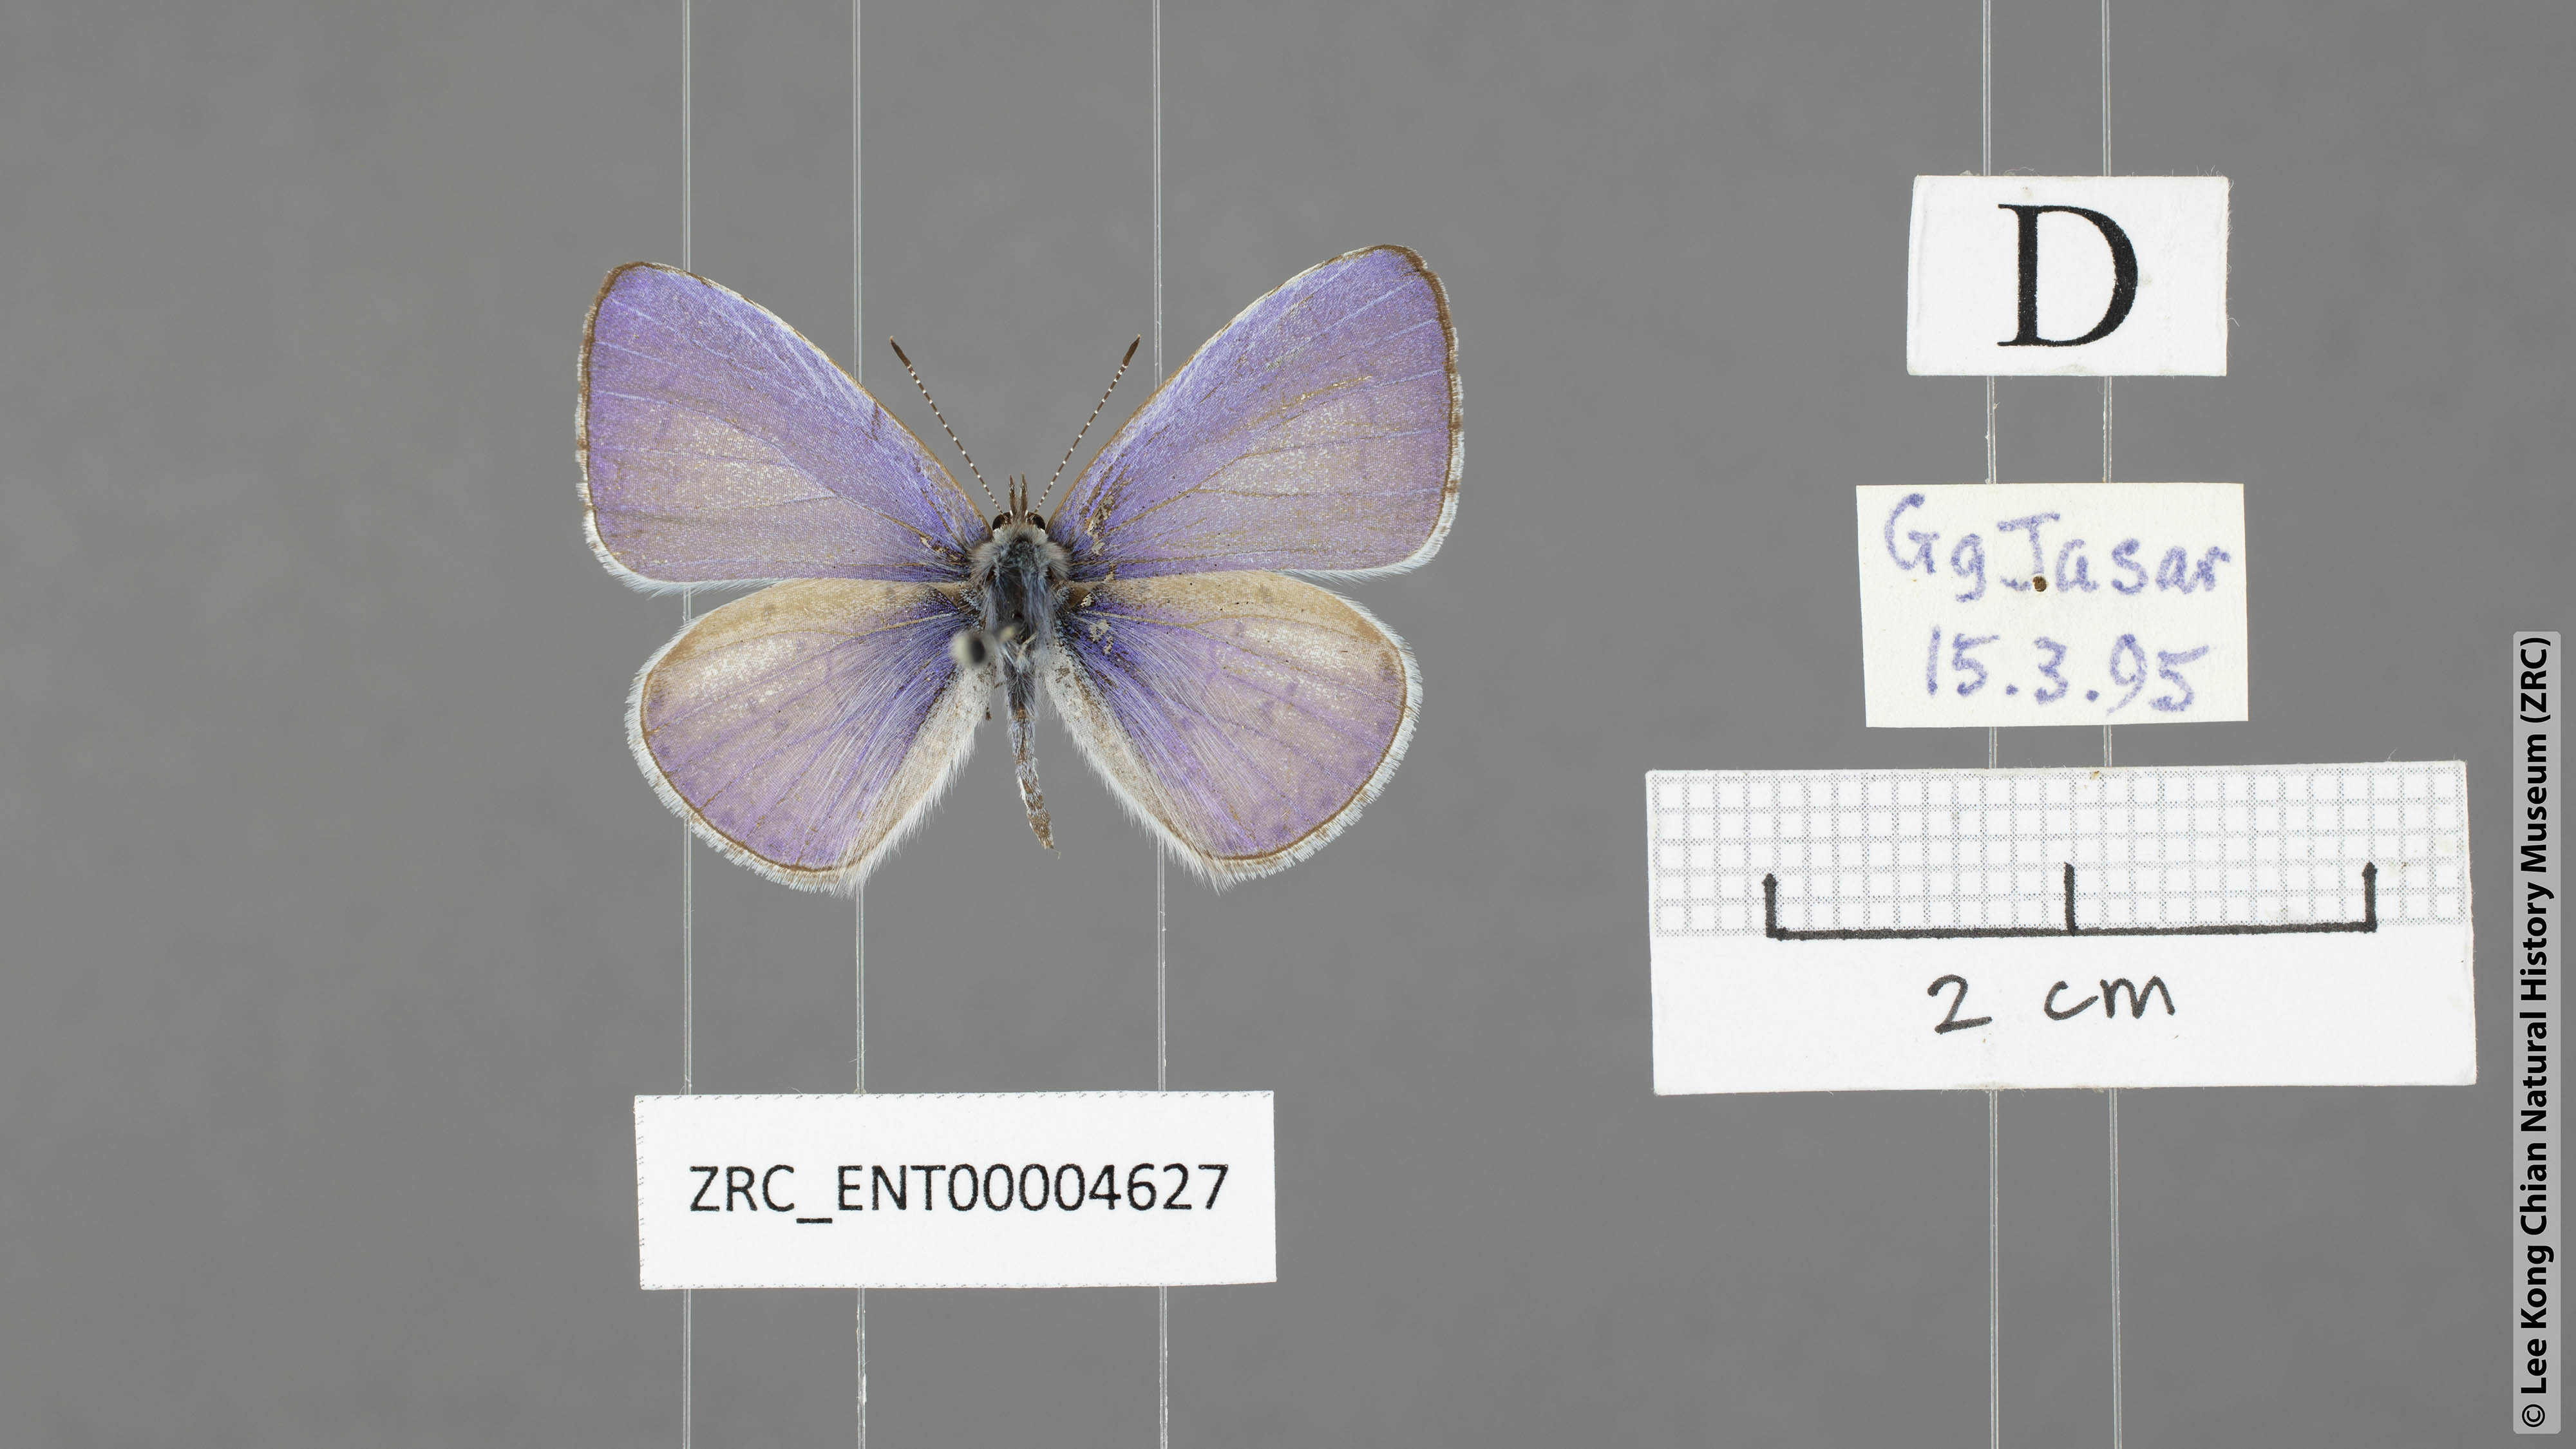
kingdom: Animalia
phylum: Arthropoda
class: Insecta
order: Lepidoptera
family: Lycaenidae
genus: Udara
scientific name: Udara dilectus
